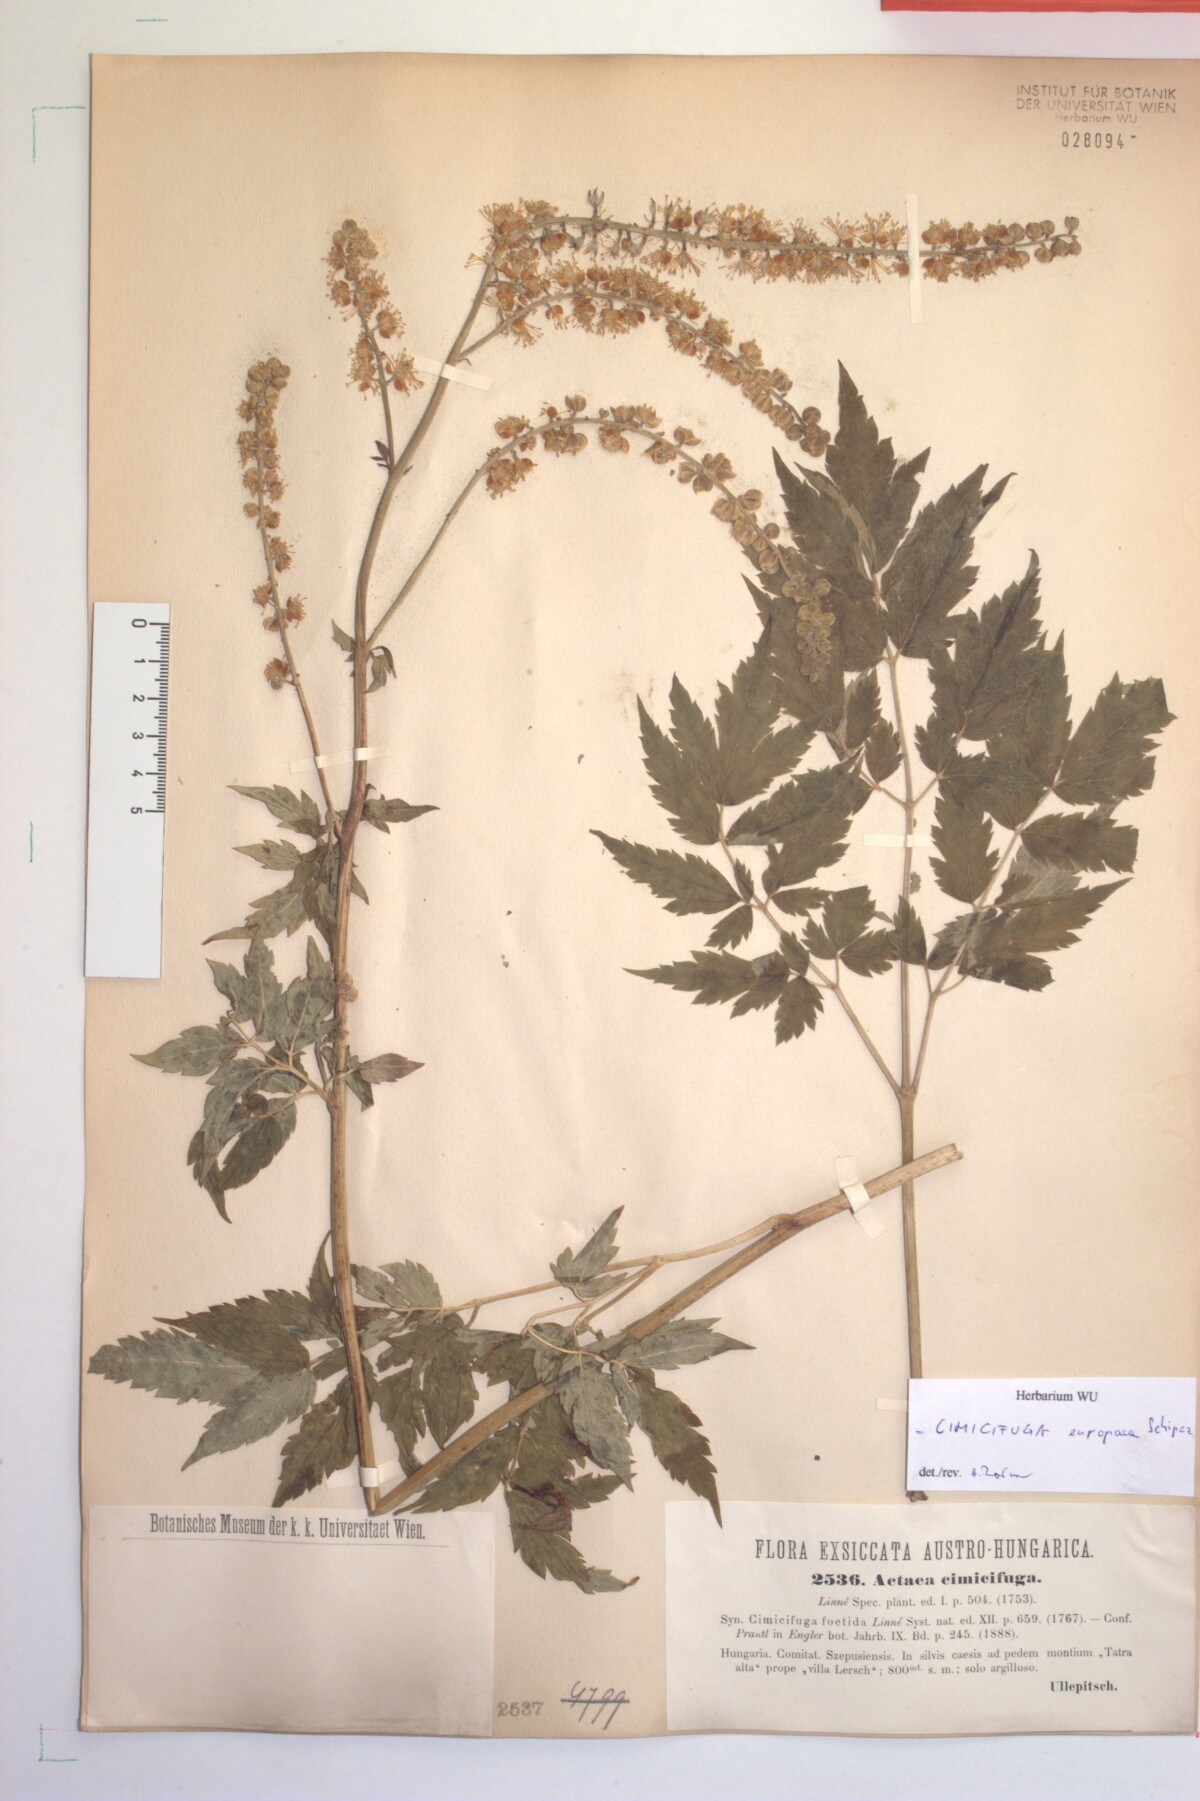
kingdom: Plantae
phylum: Tracheophyta
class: Magnoliopsida
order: Ranunculales
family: Ranunculaceae
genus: Actaea
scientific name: Actaea europaea
